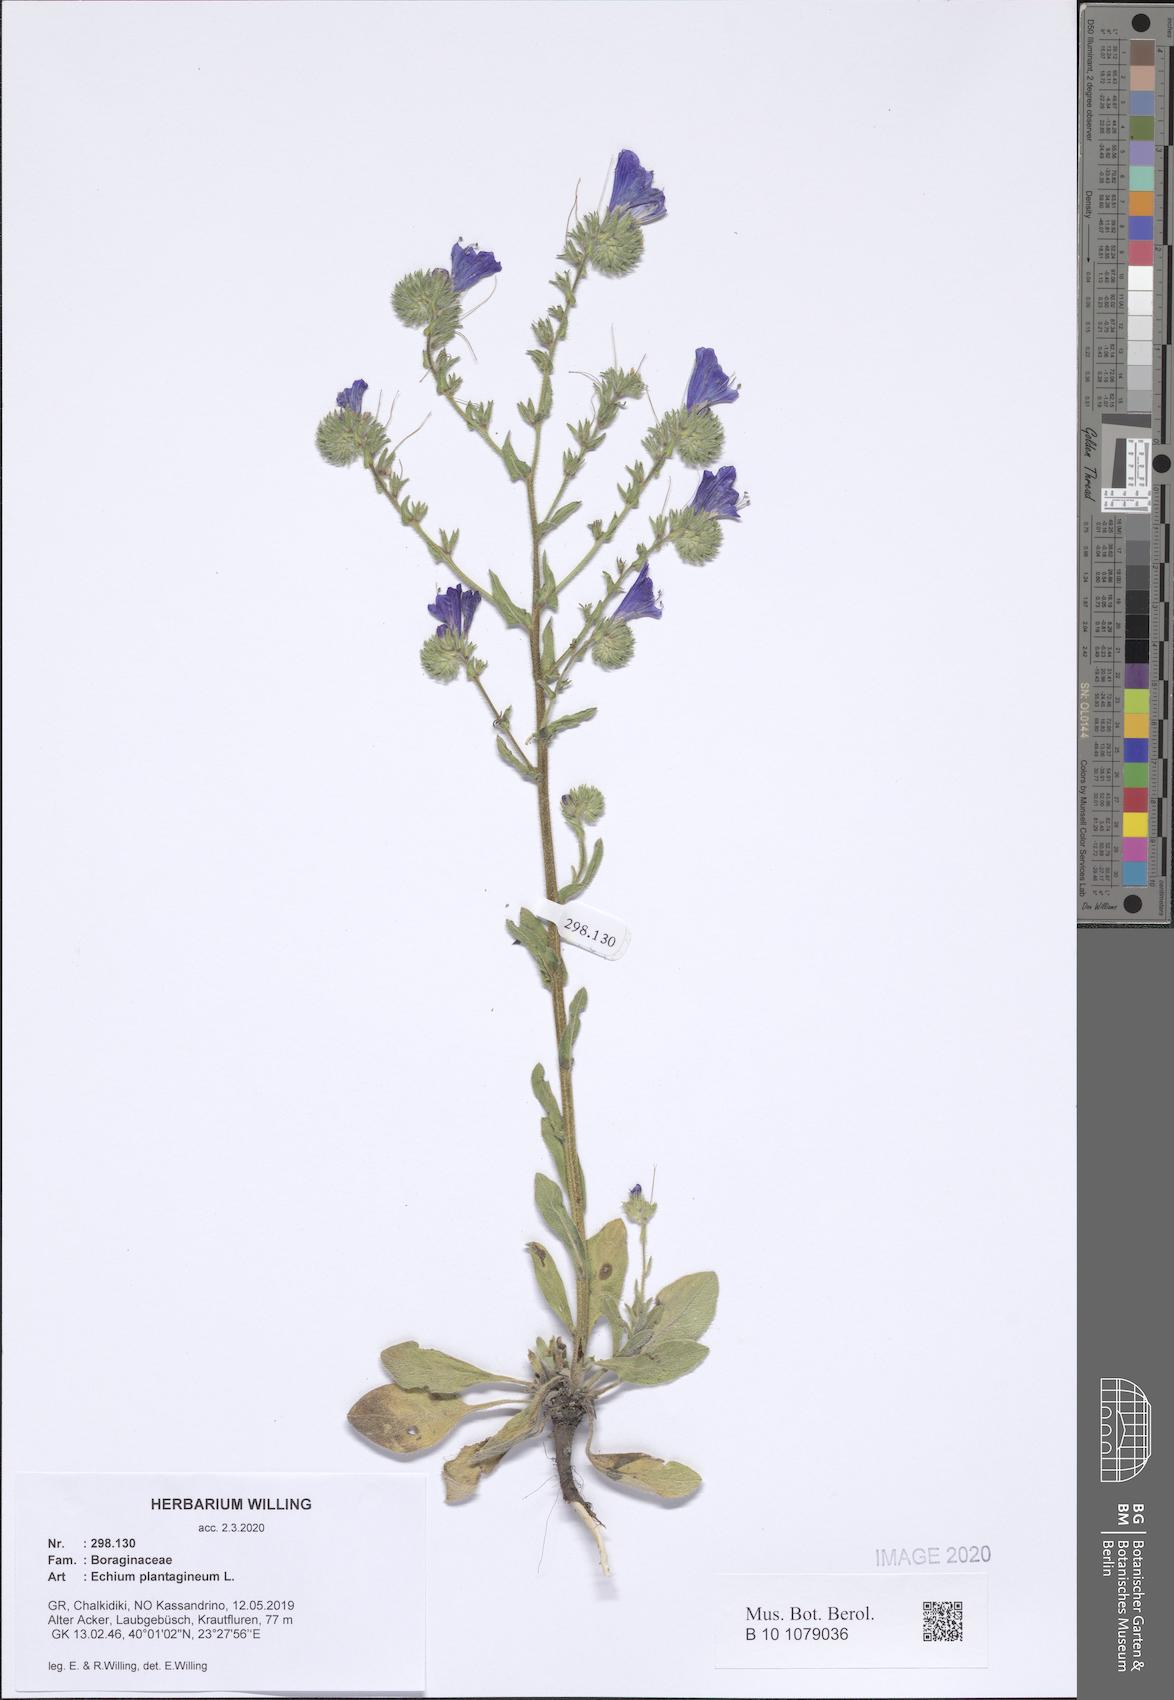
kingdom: Plantae
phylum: Tracheophyta
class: Magnoliopsida
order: Boraginales
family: Boraginaceae
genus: Echium
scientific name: Echium plantagineum
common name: Purple viper's-bugloss
